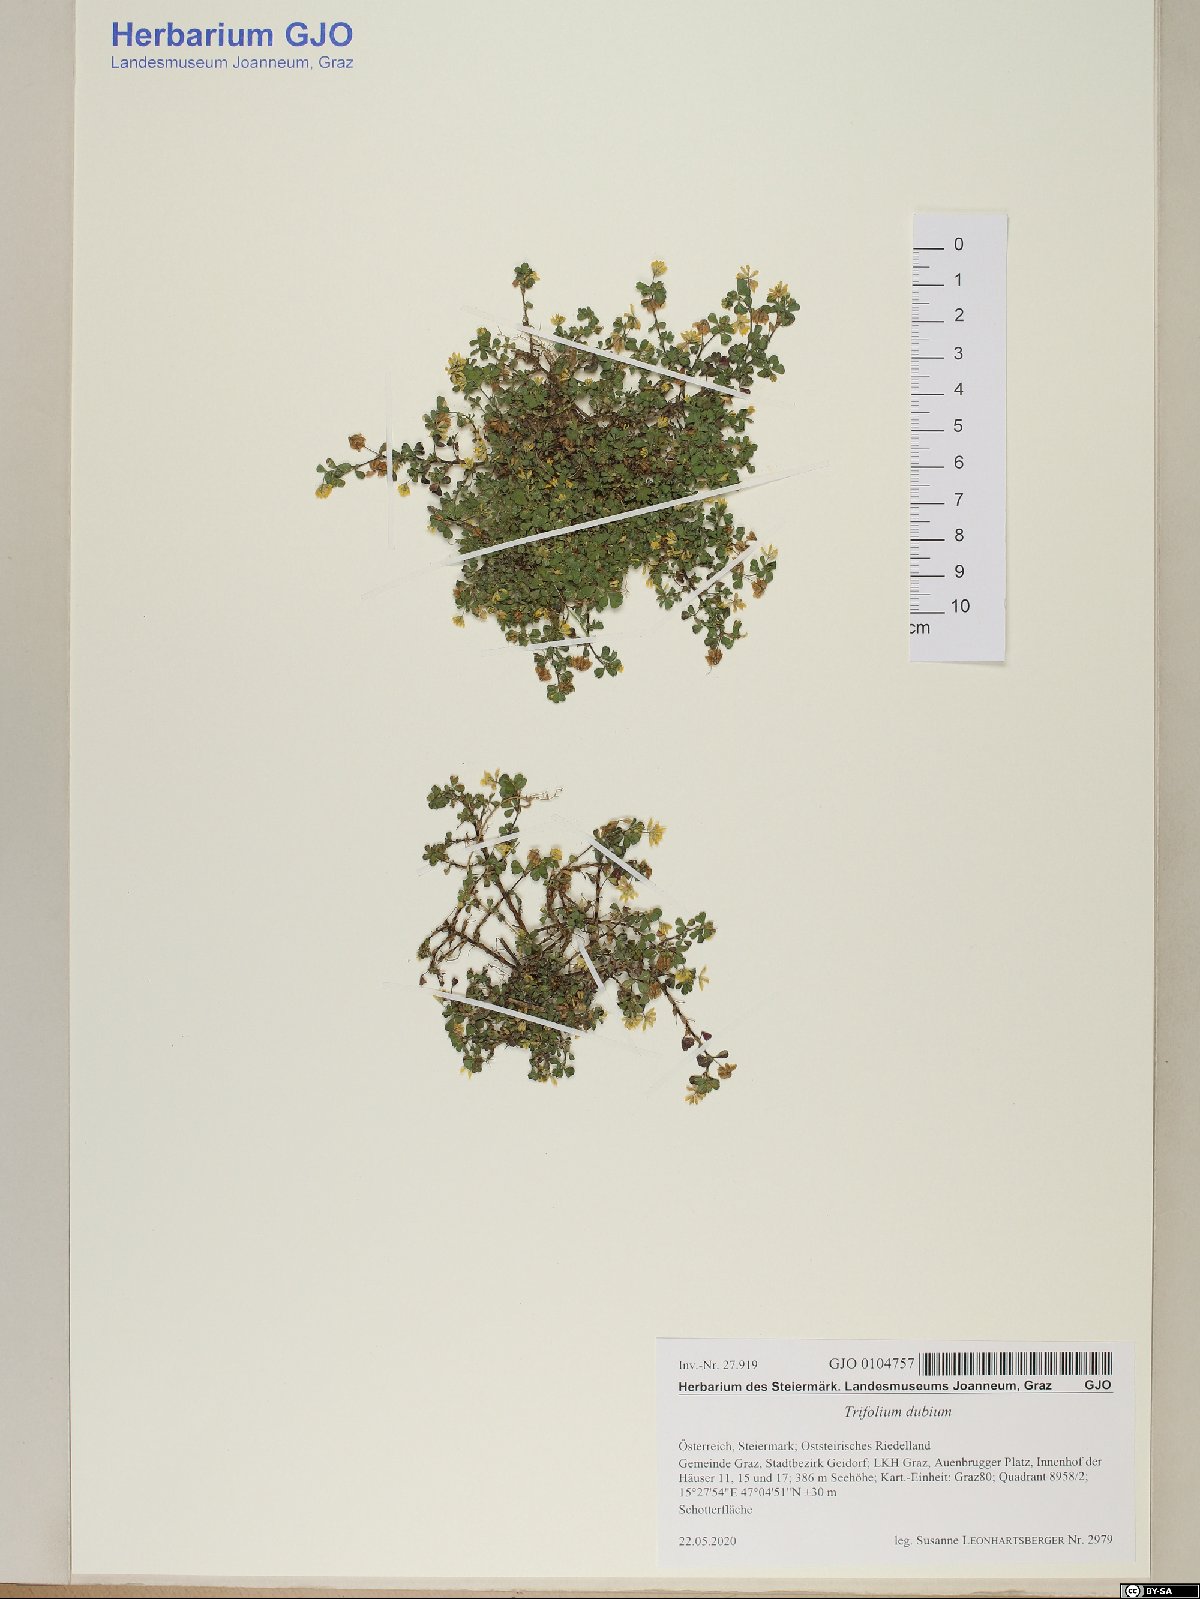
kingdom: Plantae
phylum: Tracheophyta
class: Magnoliopsida
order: Fabales
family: Fabaceae
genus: Trifolium
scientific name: Trifolium dubium
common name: Suckling clover
